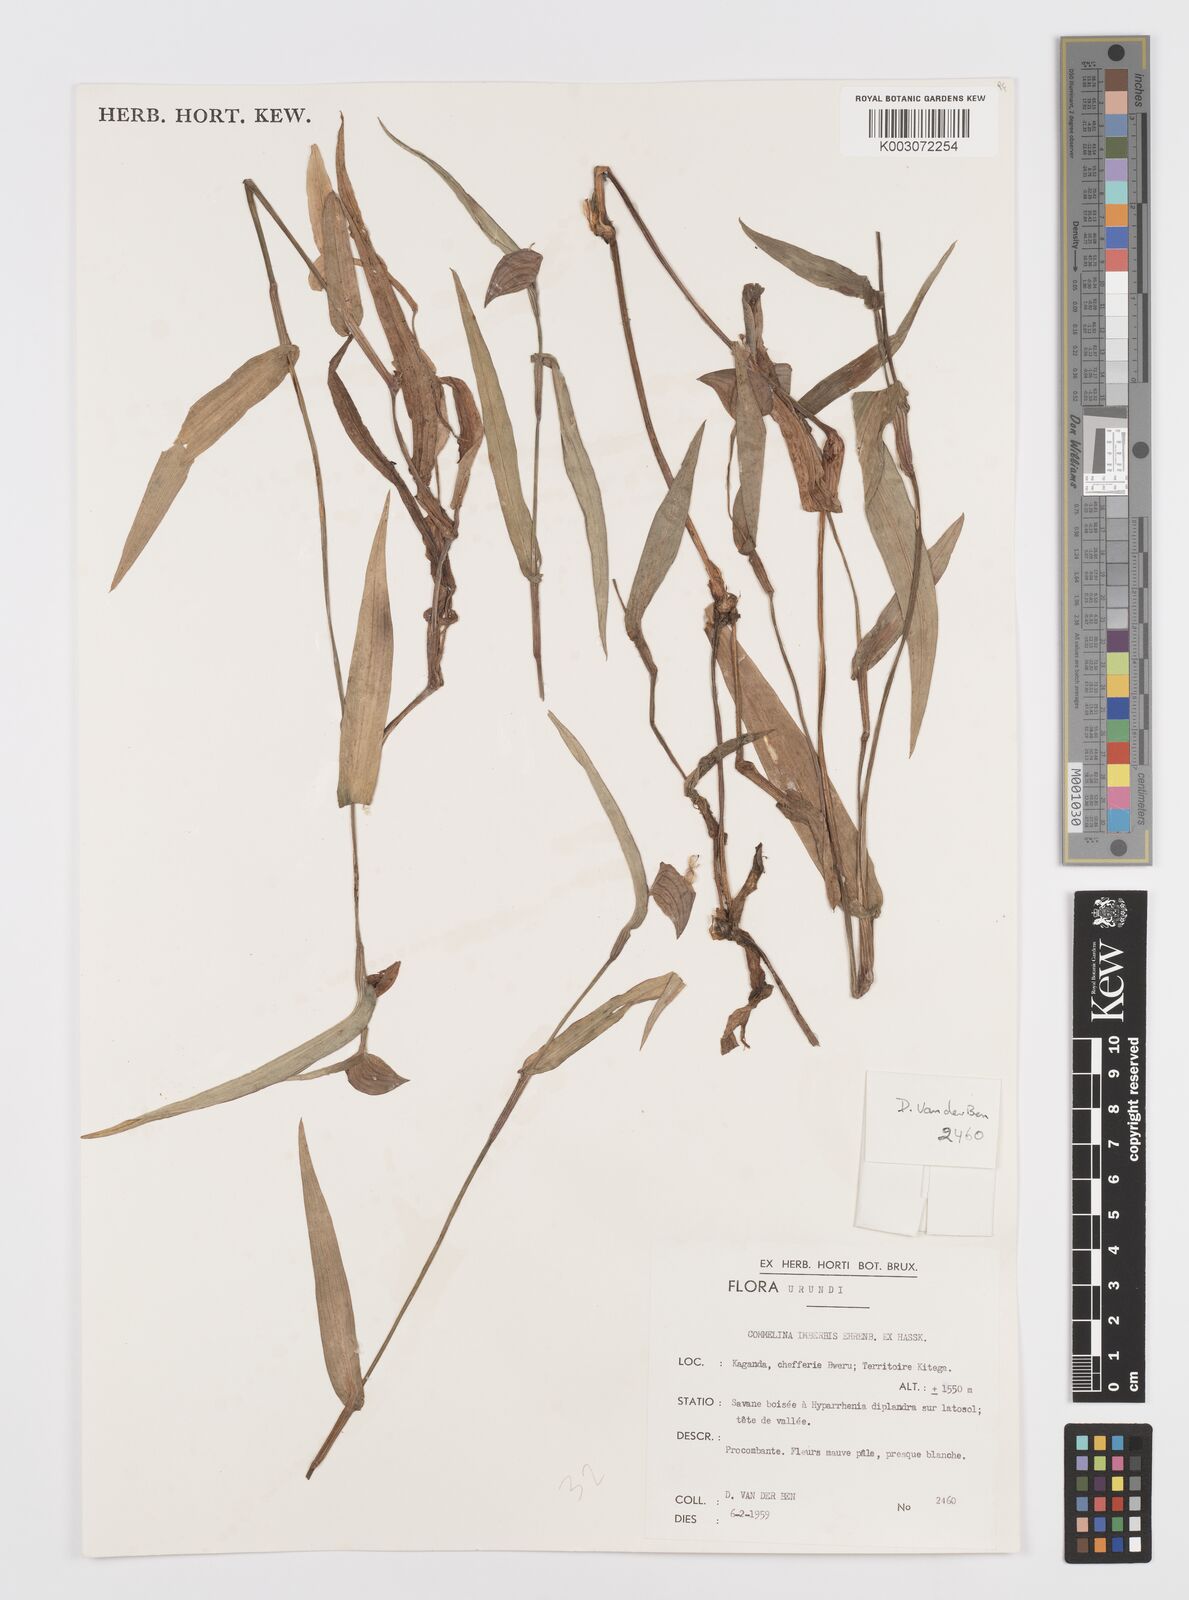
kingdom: Plantae
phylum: Tracheophyta
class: Liliopsida
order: Commelinales
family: Commelinaceae
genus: Commelina
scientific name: Commelina imberbis
